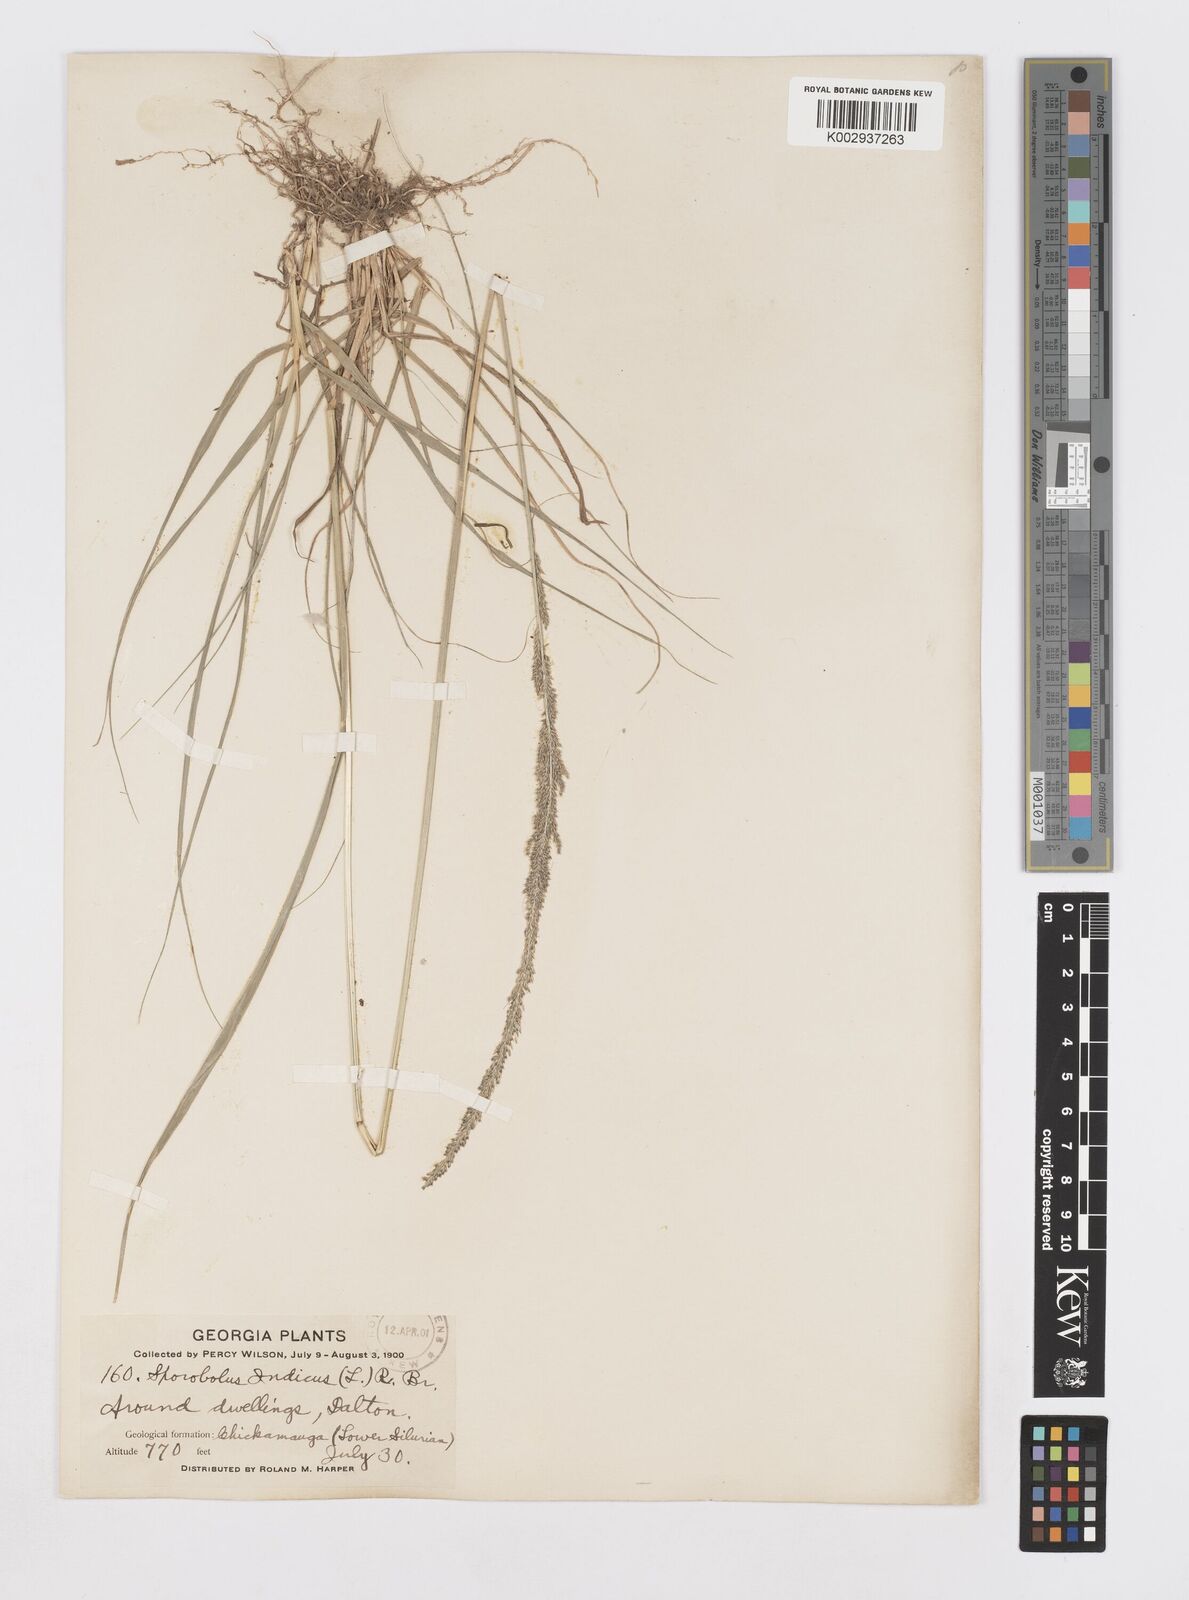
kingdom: Plantae
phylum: Tracheophyta
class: Liliopsida
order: Poales
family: Poaceae
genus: Sporobolus
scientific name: Sporobolus indicus
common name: Smut grass
